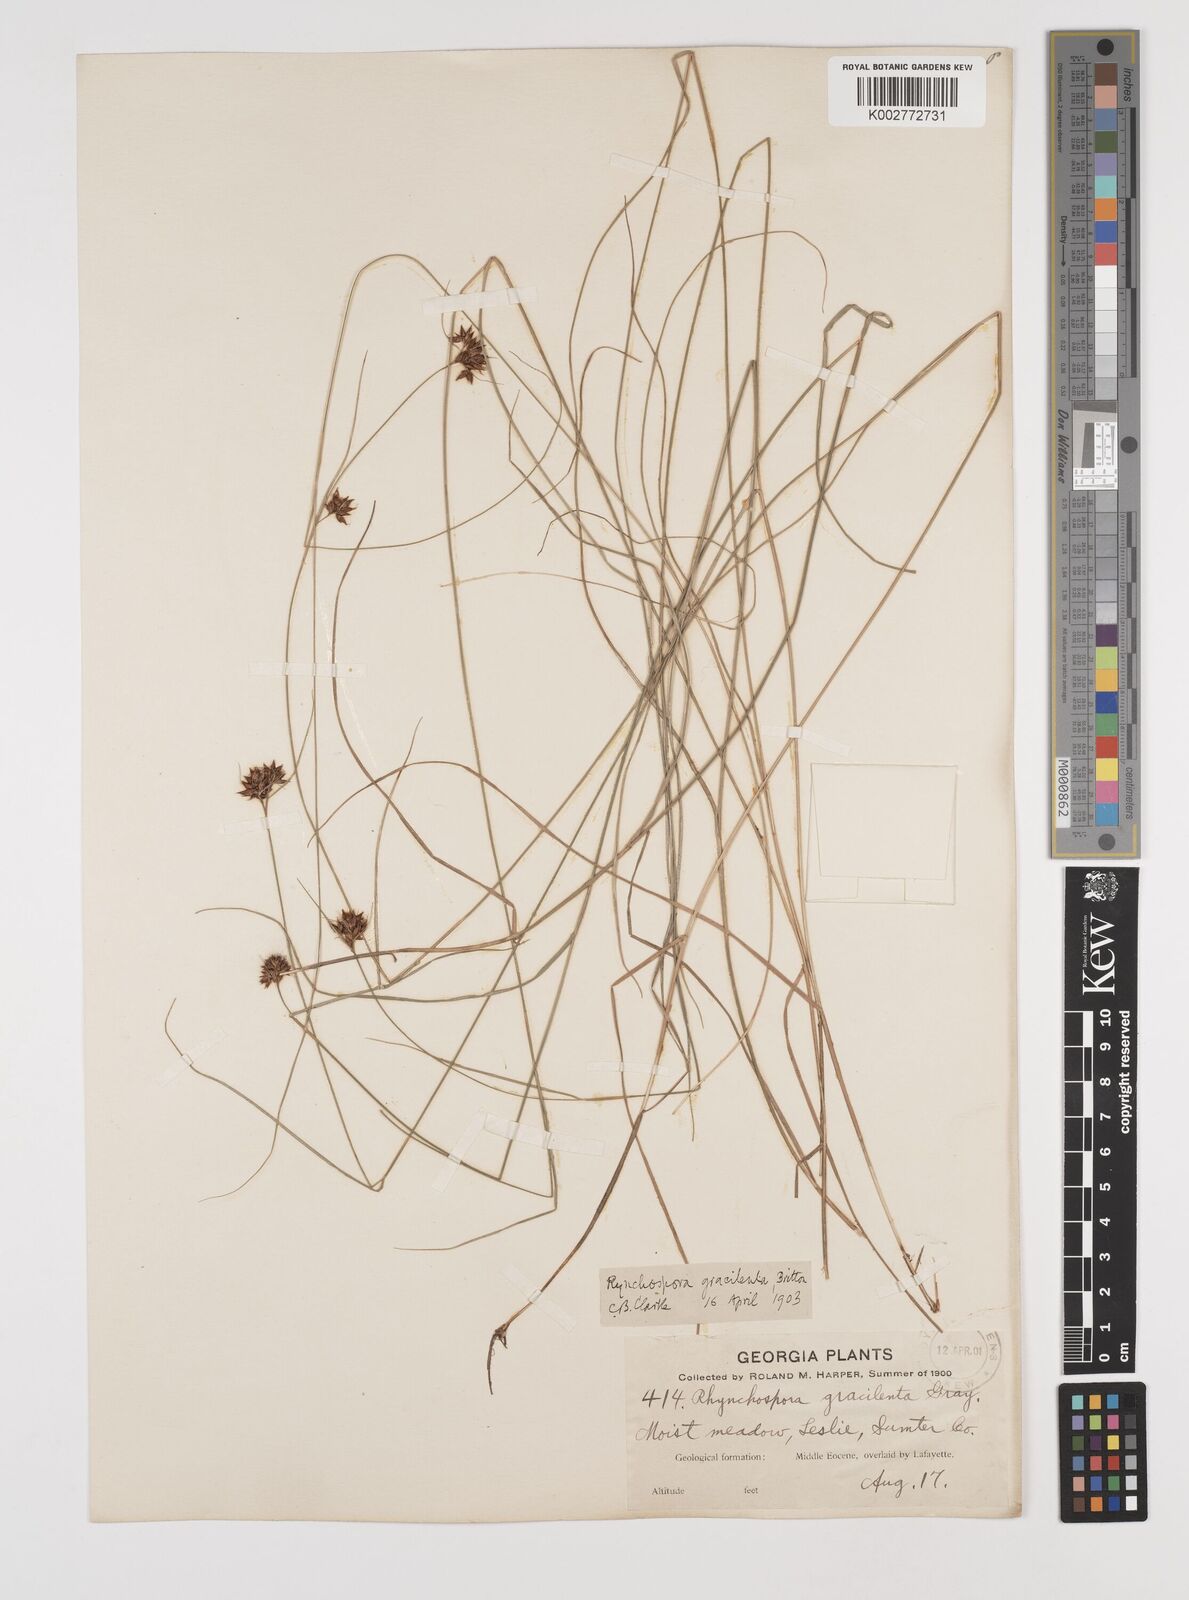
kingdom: Plantae
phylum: Tracheophyta
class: Liliopsida
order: Poales
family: Cyperaceae
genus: Rhynchospora
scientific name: Rhynchospora gracilenta
